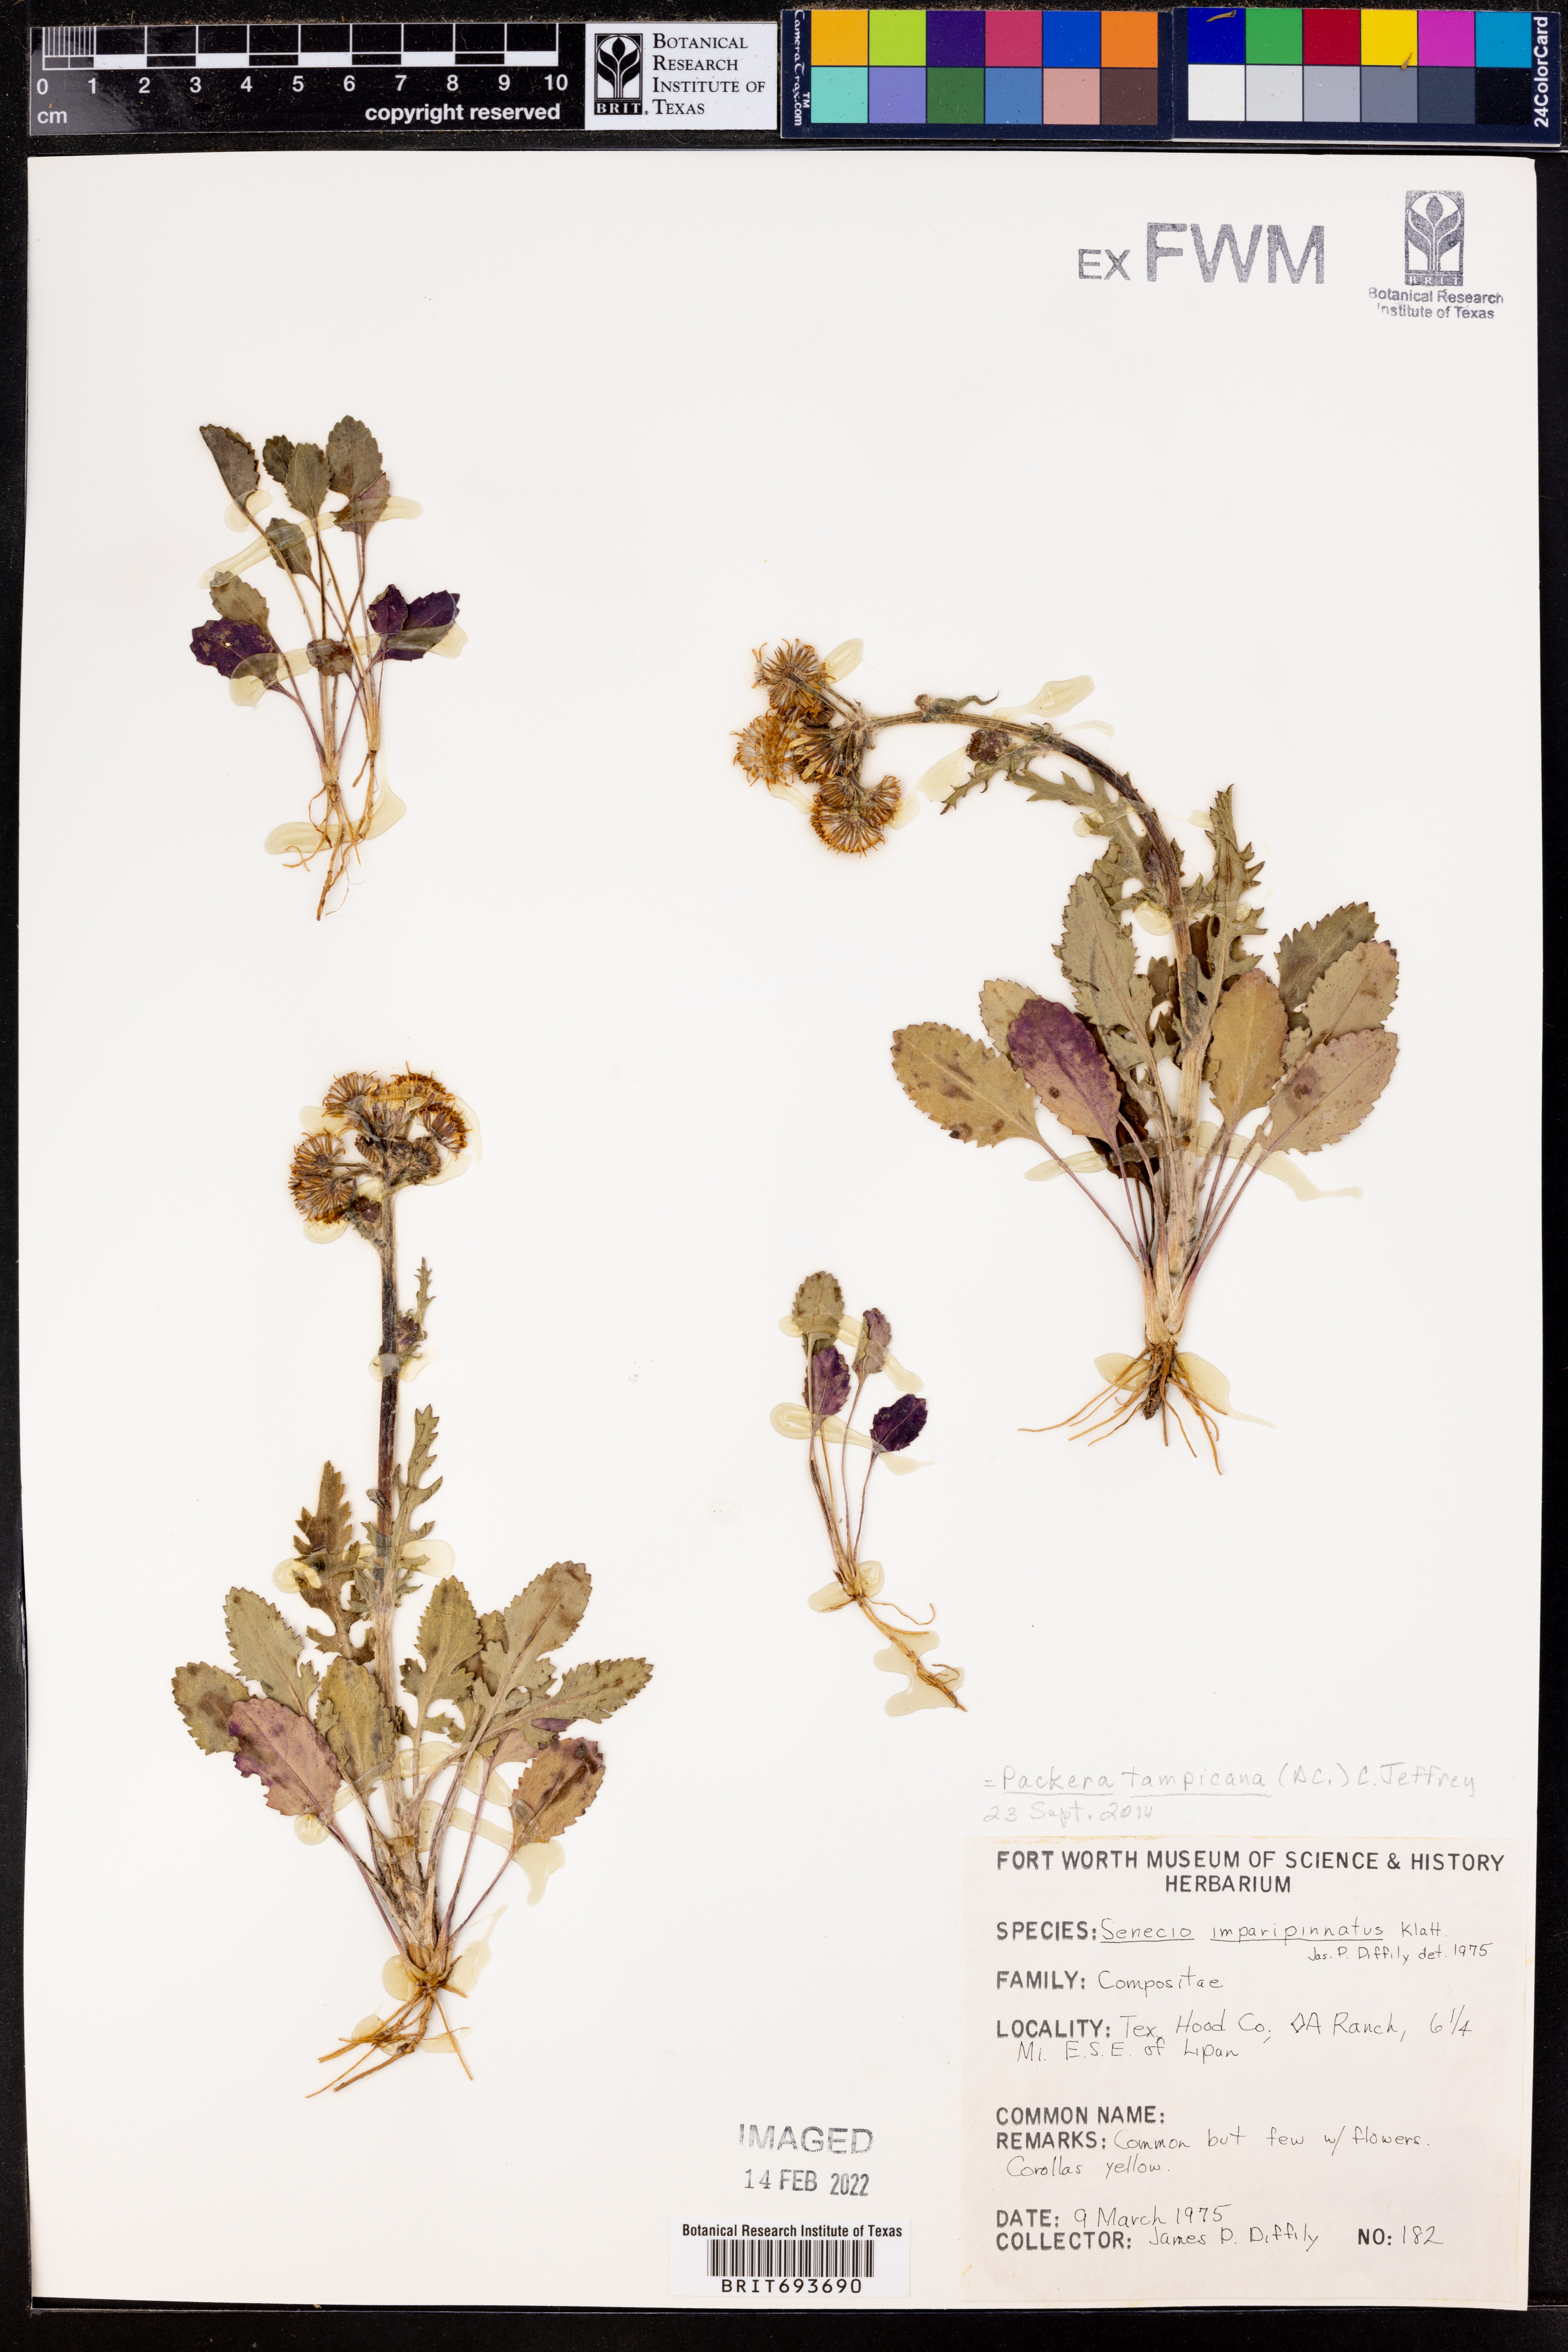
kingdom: Plantae
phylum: Tracheophyta
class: Magnoliopsida
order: Asterales
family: Asteraceae
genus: Packera
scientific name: Packera tampicana
